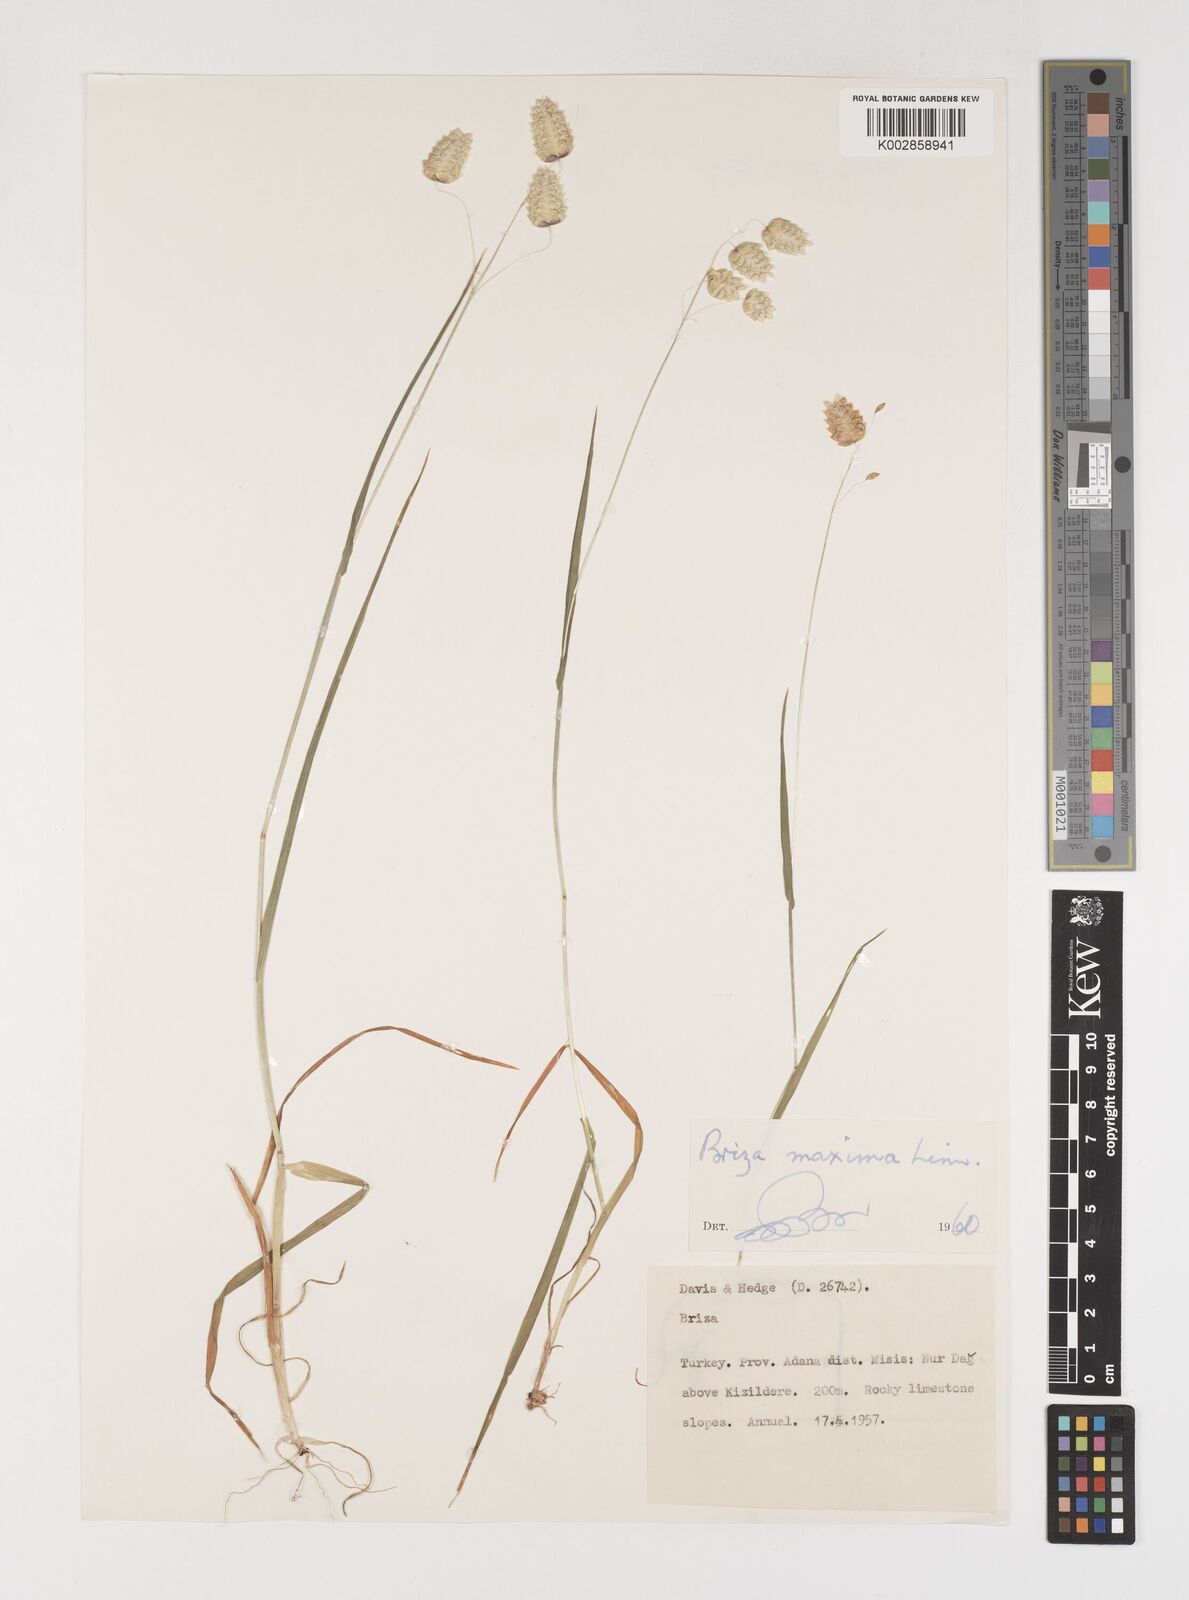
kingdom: Plantae
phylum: Tracheophyta
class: Liliopsida
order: Poales
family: Poaceae
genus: Briza
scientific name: Briza maxima
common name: Big quakinggrass
